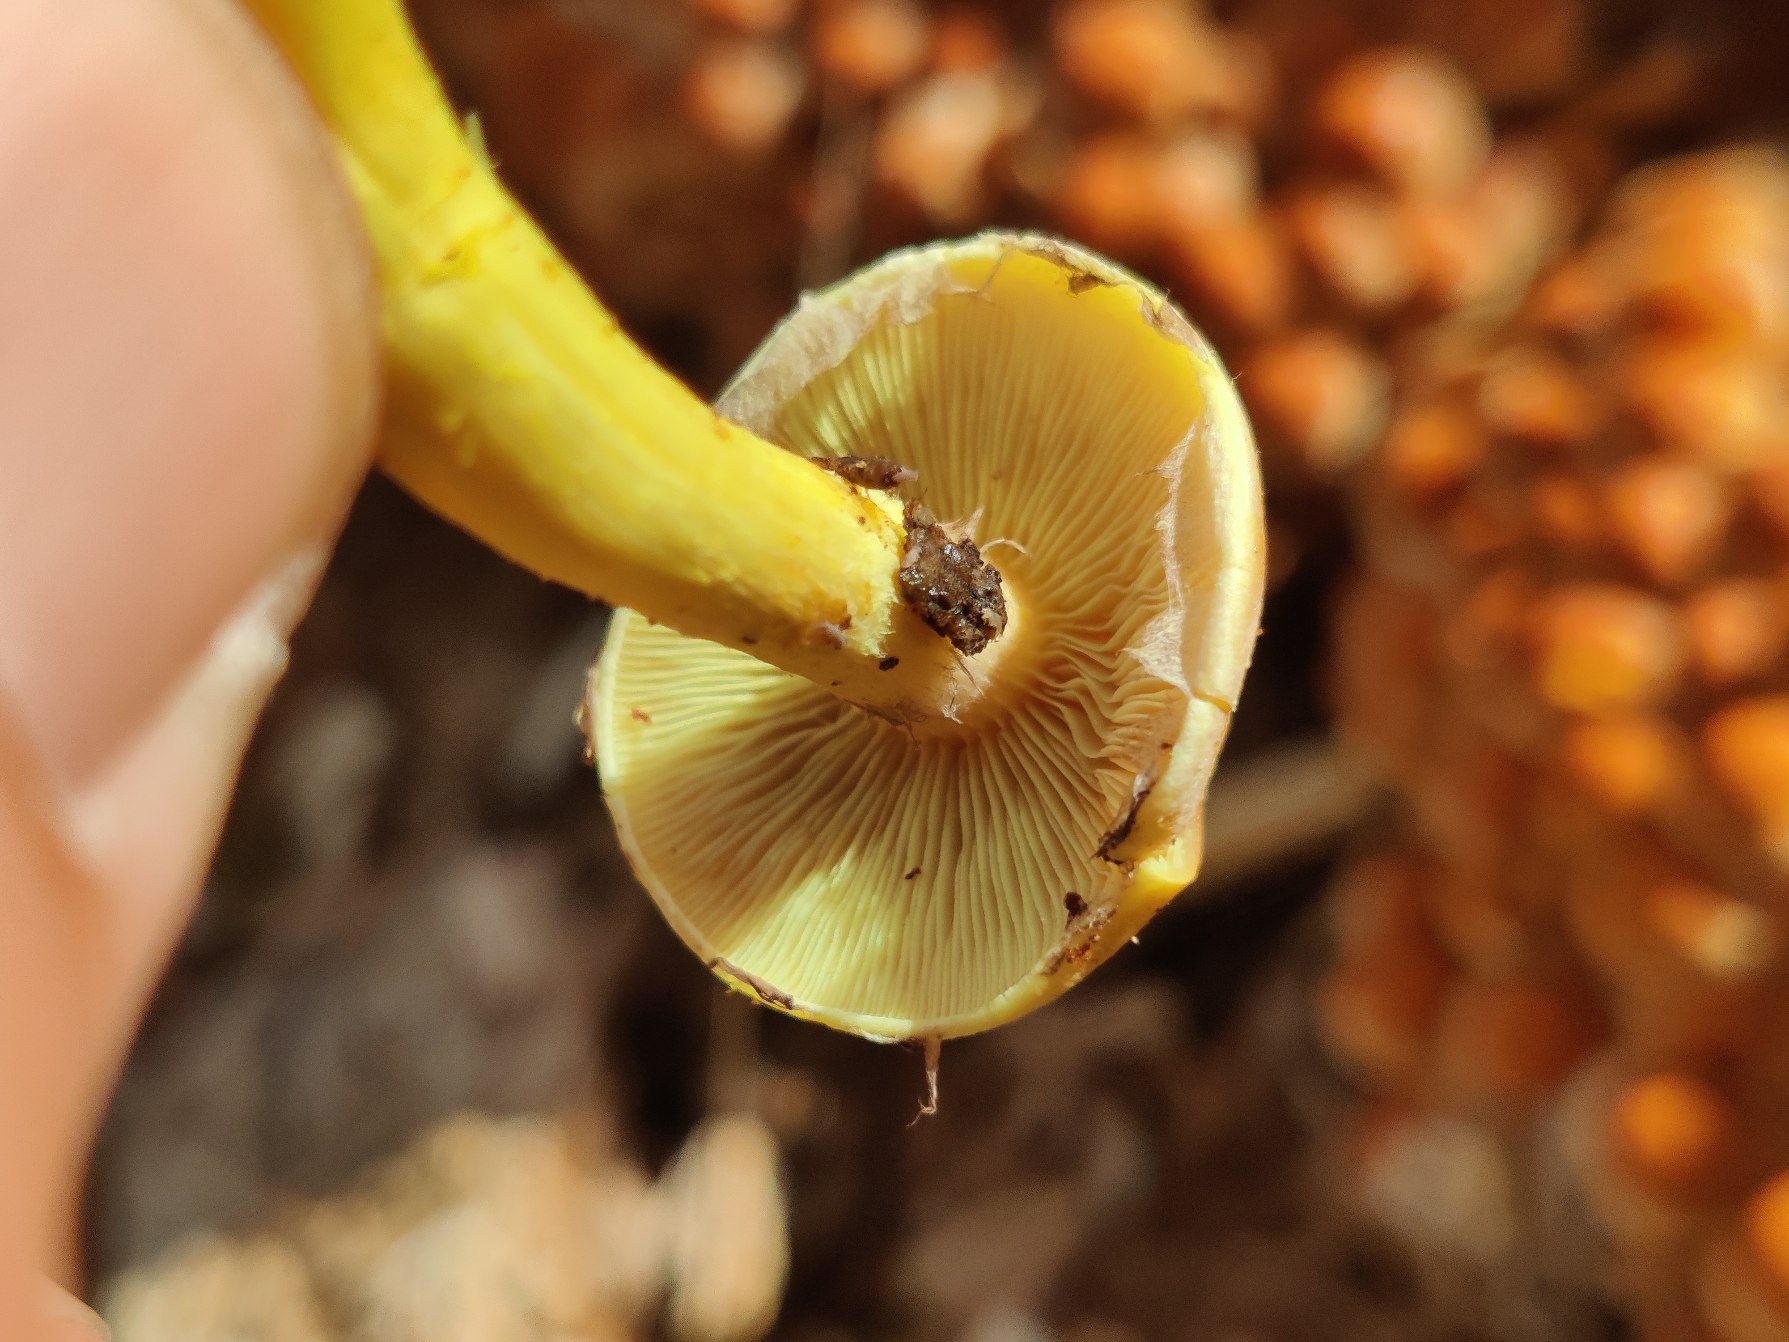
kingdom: Fungi
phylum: Basidiomycota
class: Agaricomycetes
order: Agaricales
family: Strophariaceae
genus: Hypholoma
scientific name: Hypholoma fasciculare
